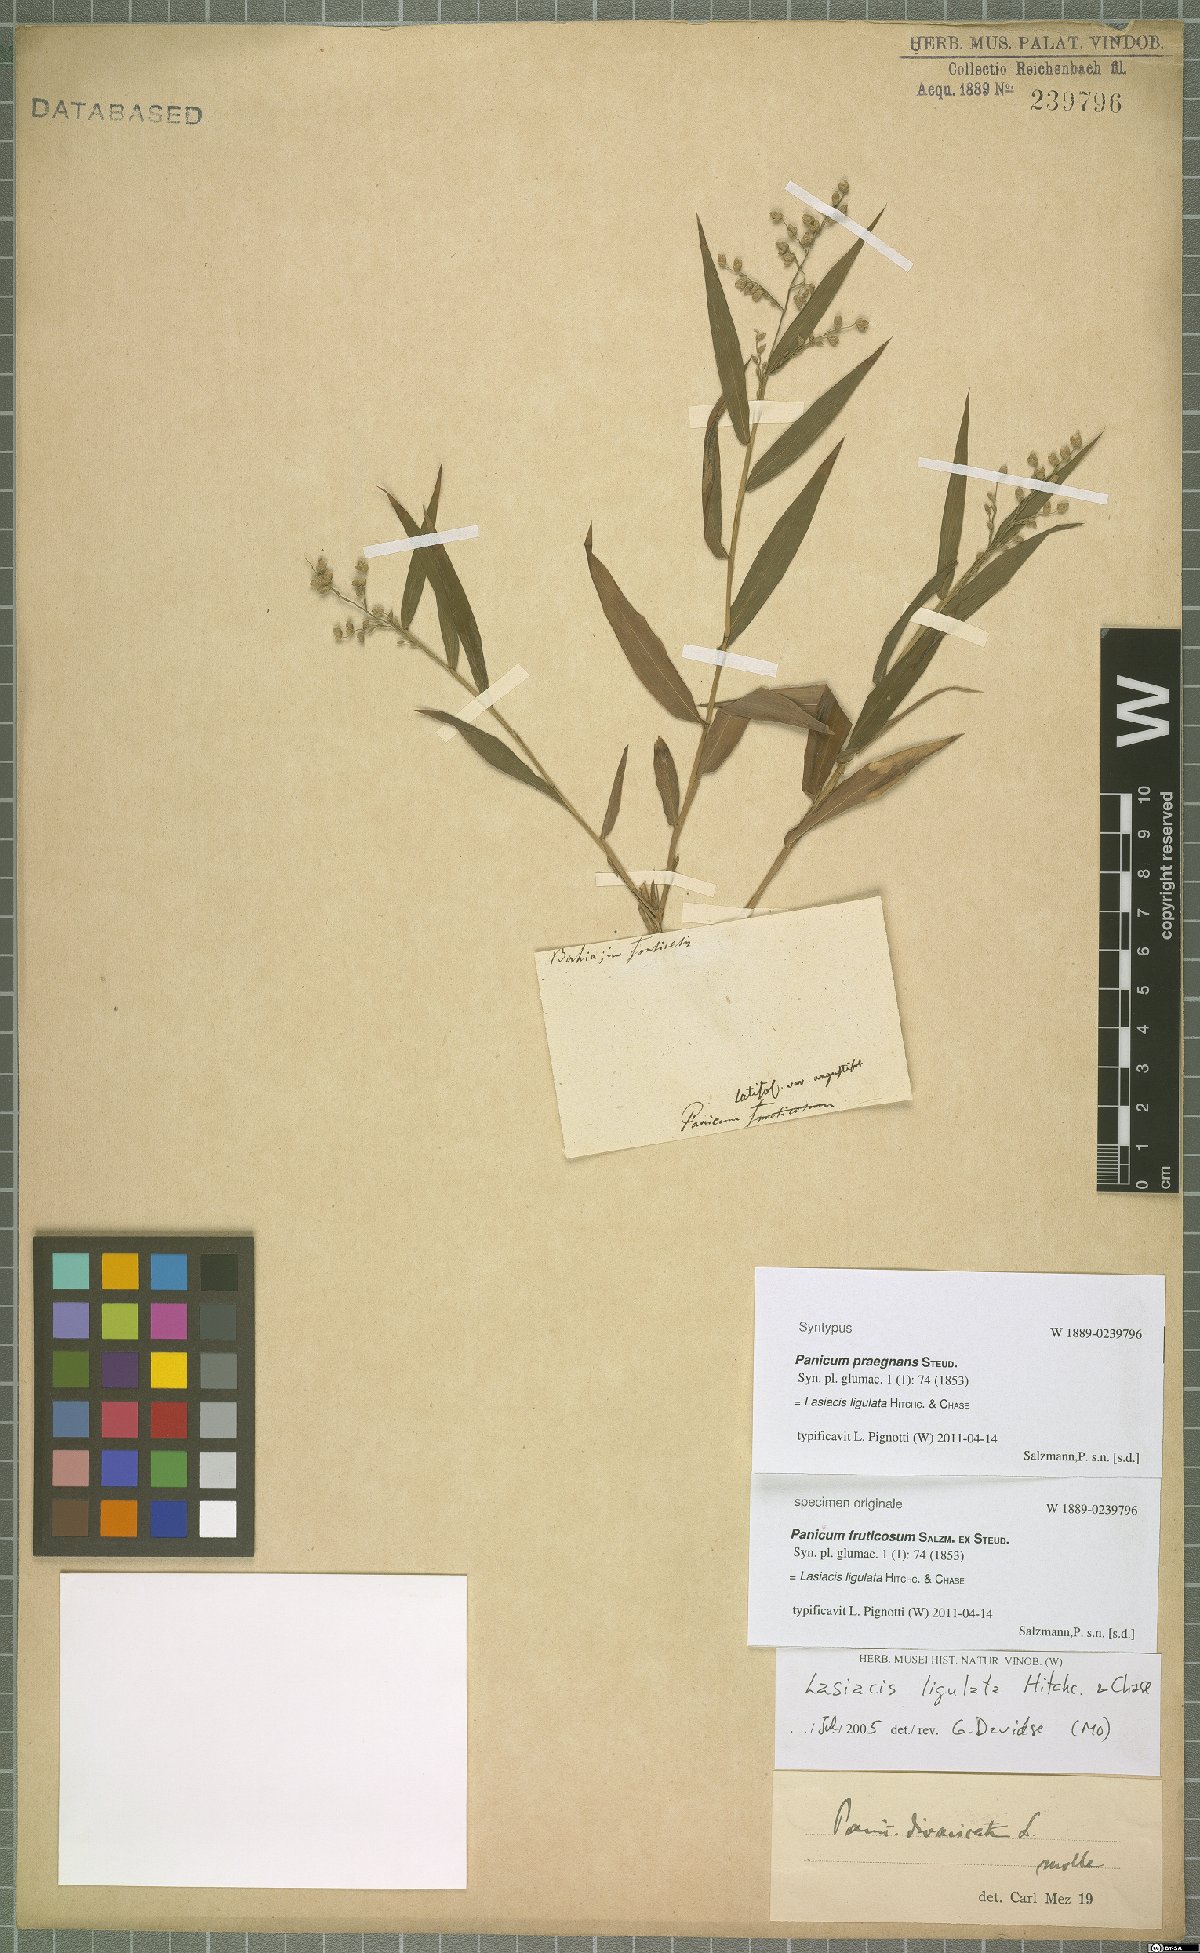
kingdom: Plantae
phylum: Tracheophyta
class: Liliopsida
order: Poales
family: Poaceae
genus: Lasiacis
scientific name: Lasiacis ligulata
